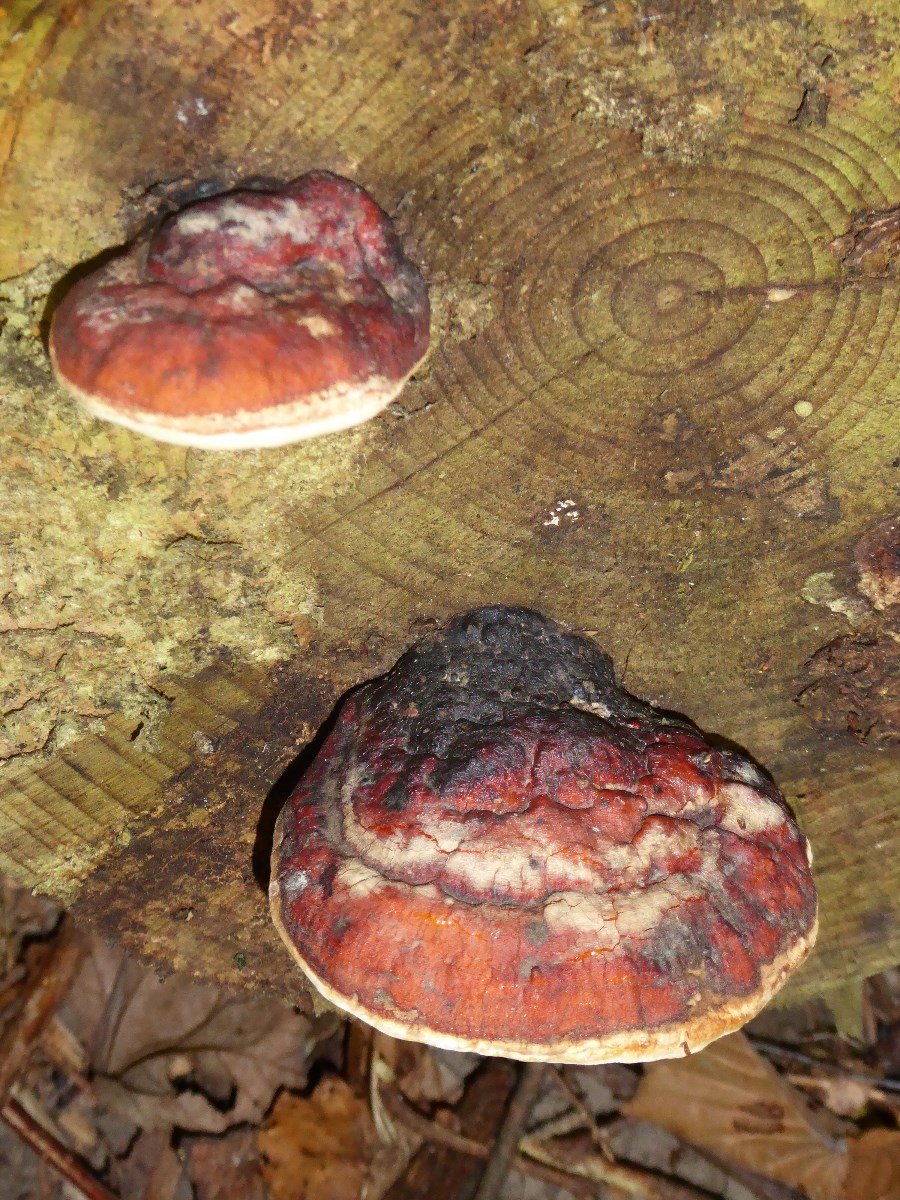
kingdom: Fungi
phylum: Basidiomycota
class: Agaricomycetes
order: Polyporales
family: Fomitopsidaceae
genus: Fomitopsis
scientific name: Fomitopsis pinicola
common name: randbæltet hovporesvamp
